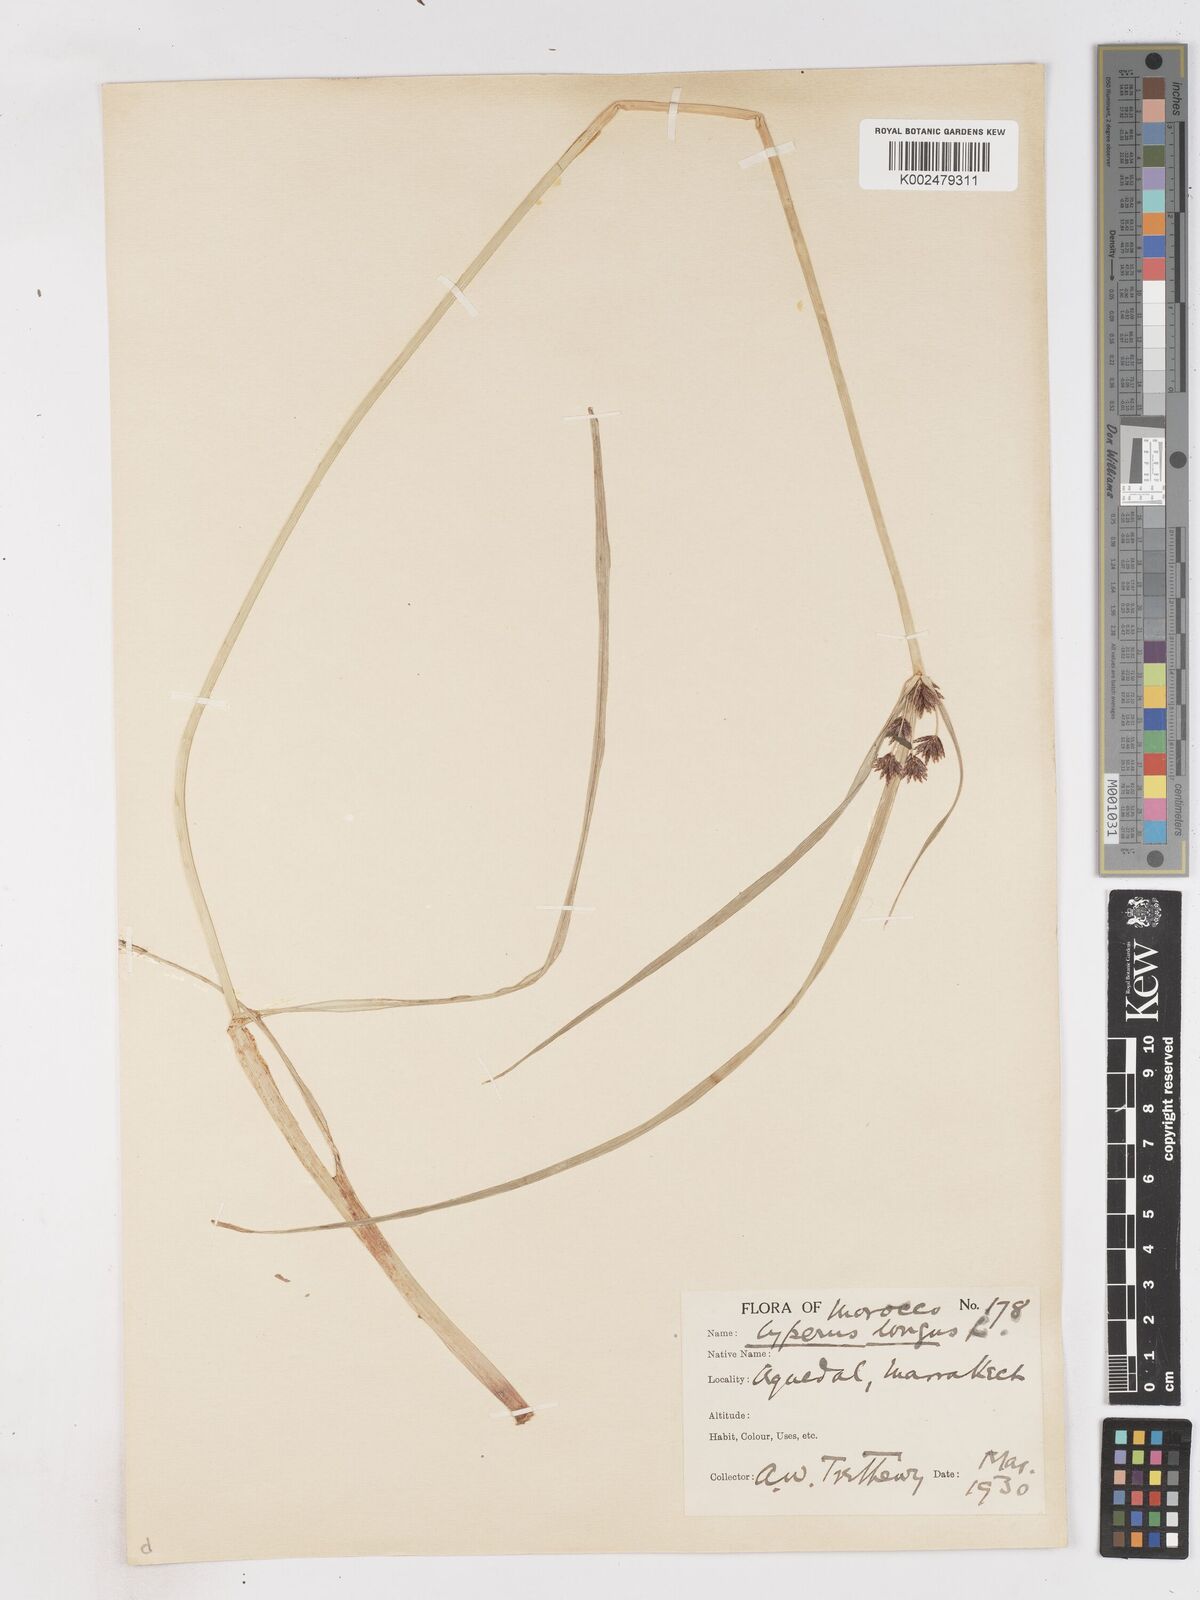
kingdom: Plantae
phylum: Tracheophyta
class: Liliopsida
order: Poales
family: Cyperaceae
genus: Cyperus
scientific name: Cyperus longus
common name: Galingale
